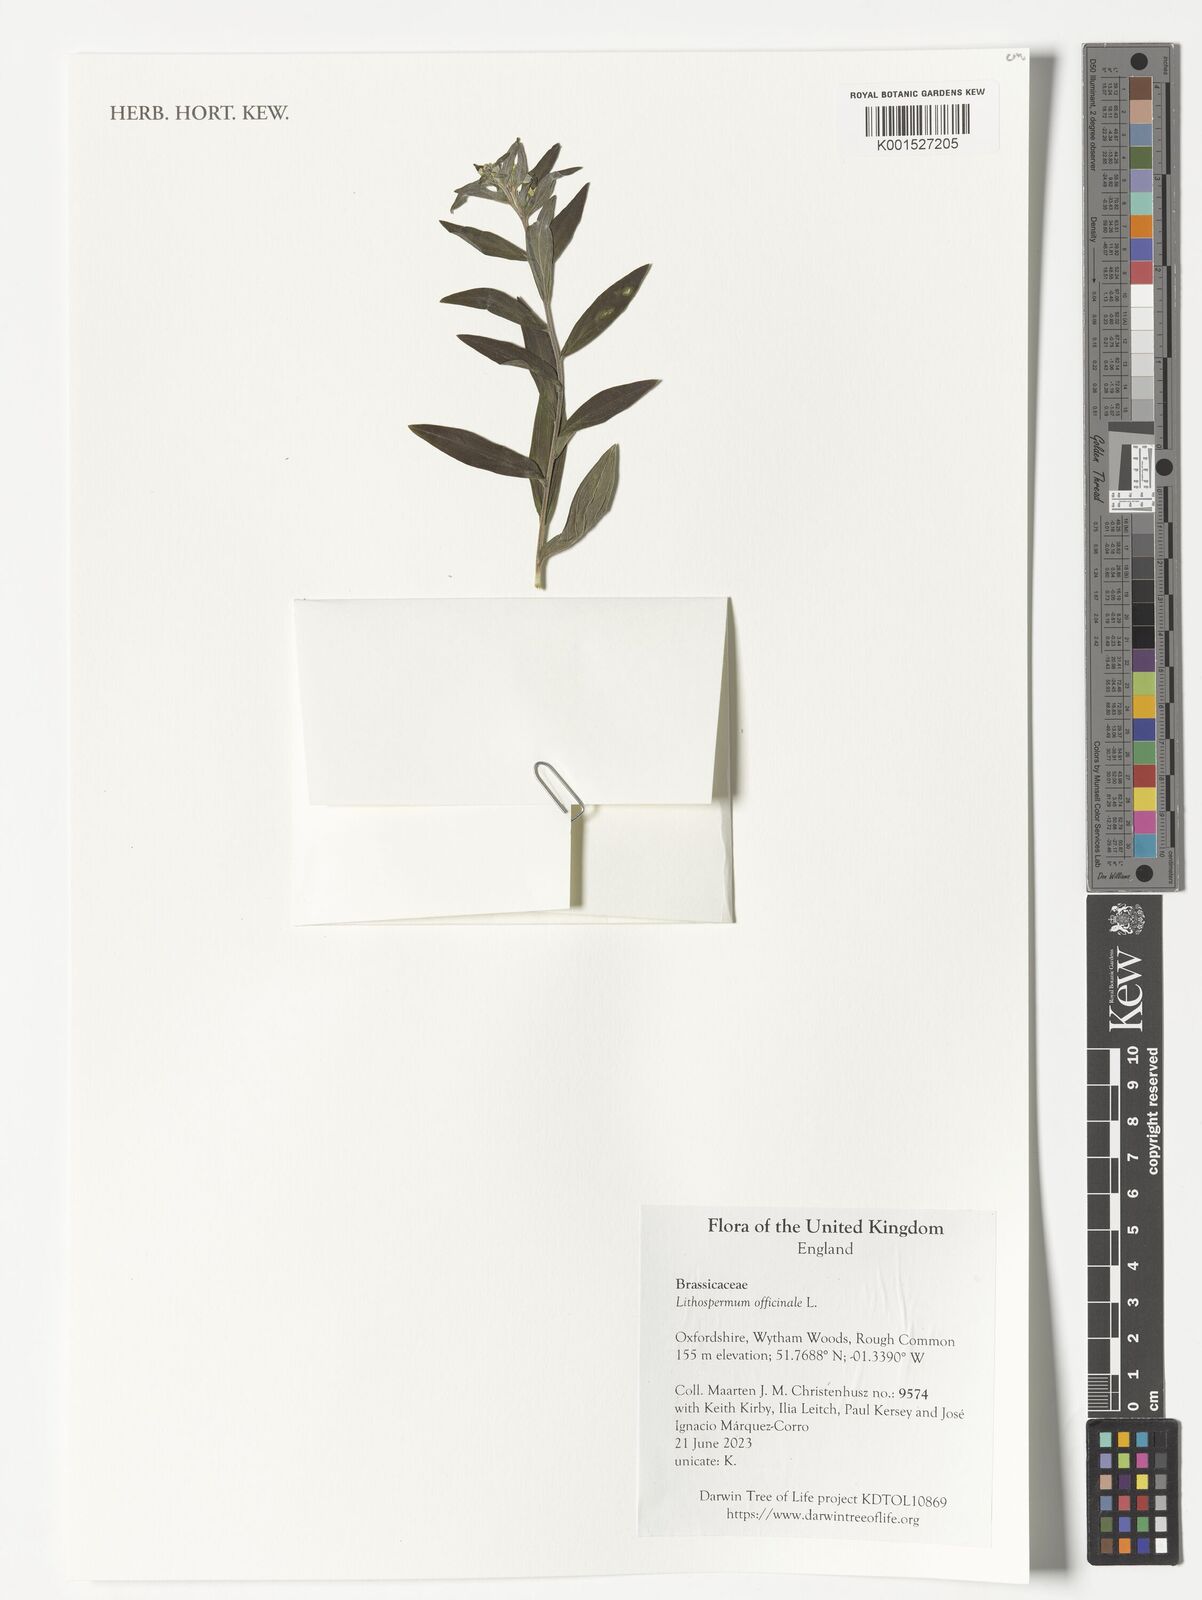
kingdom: Plantae
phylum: Tracheophyta
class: Magnoliopsida
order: Boraginales
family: Boraginaceae
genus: Lithospermum
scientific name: Lithospermum officinale
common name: Common gromwell
